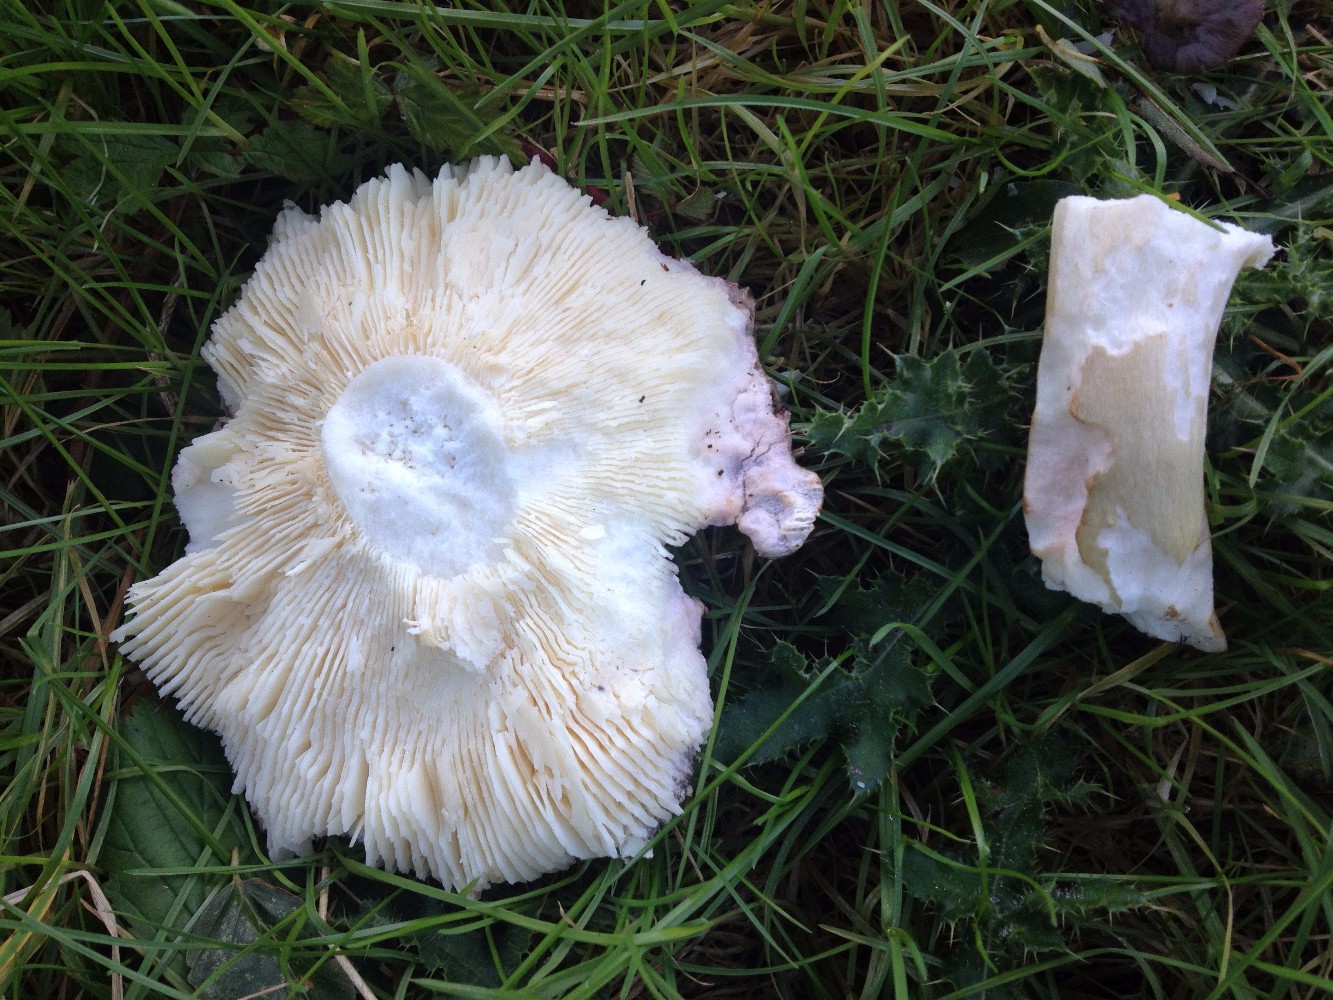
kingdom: Fungi
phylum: Basidiomycota
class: Agaricomycetes
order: Russulales
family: Russulaceae
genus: Russula
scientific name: Russula olivacea
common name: stor skørhat
